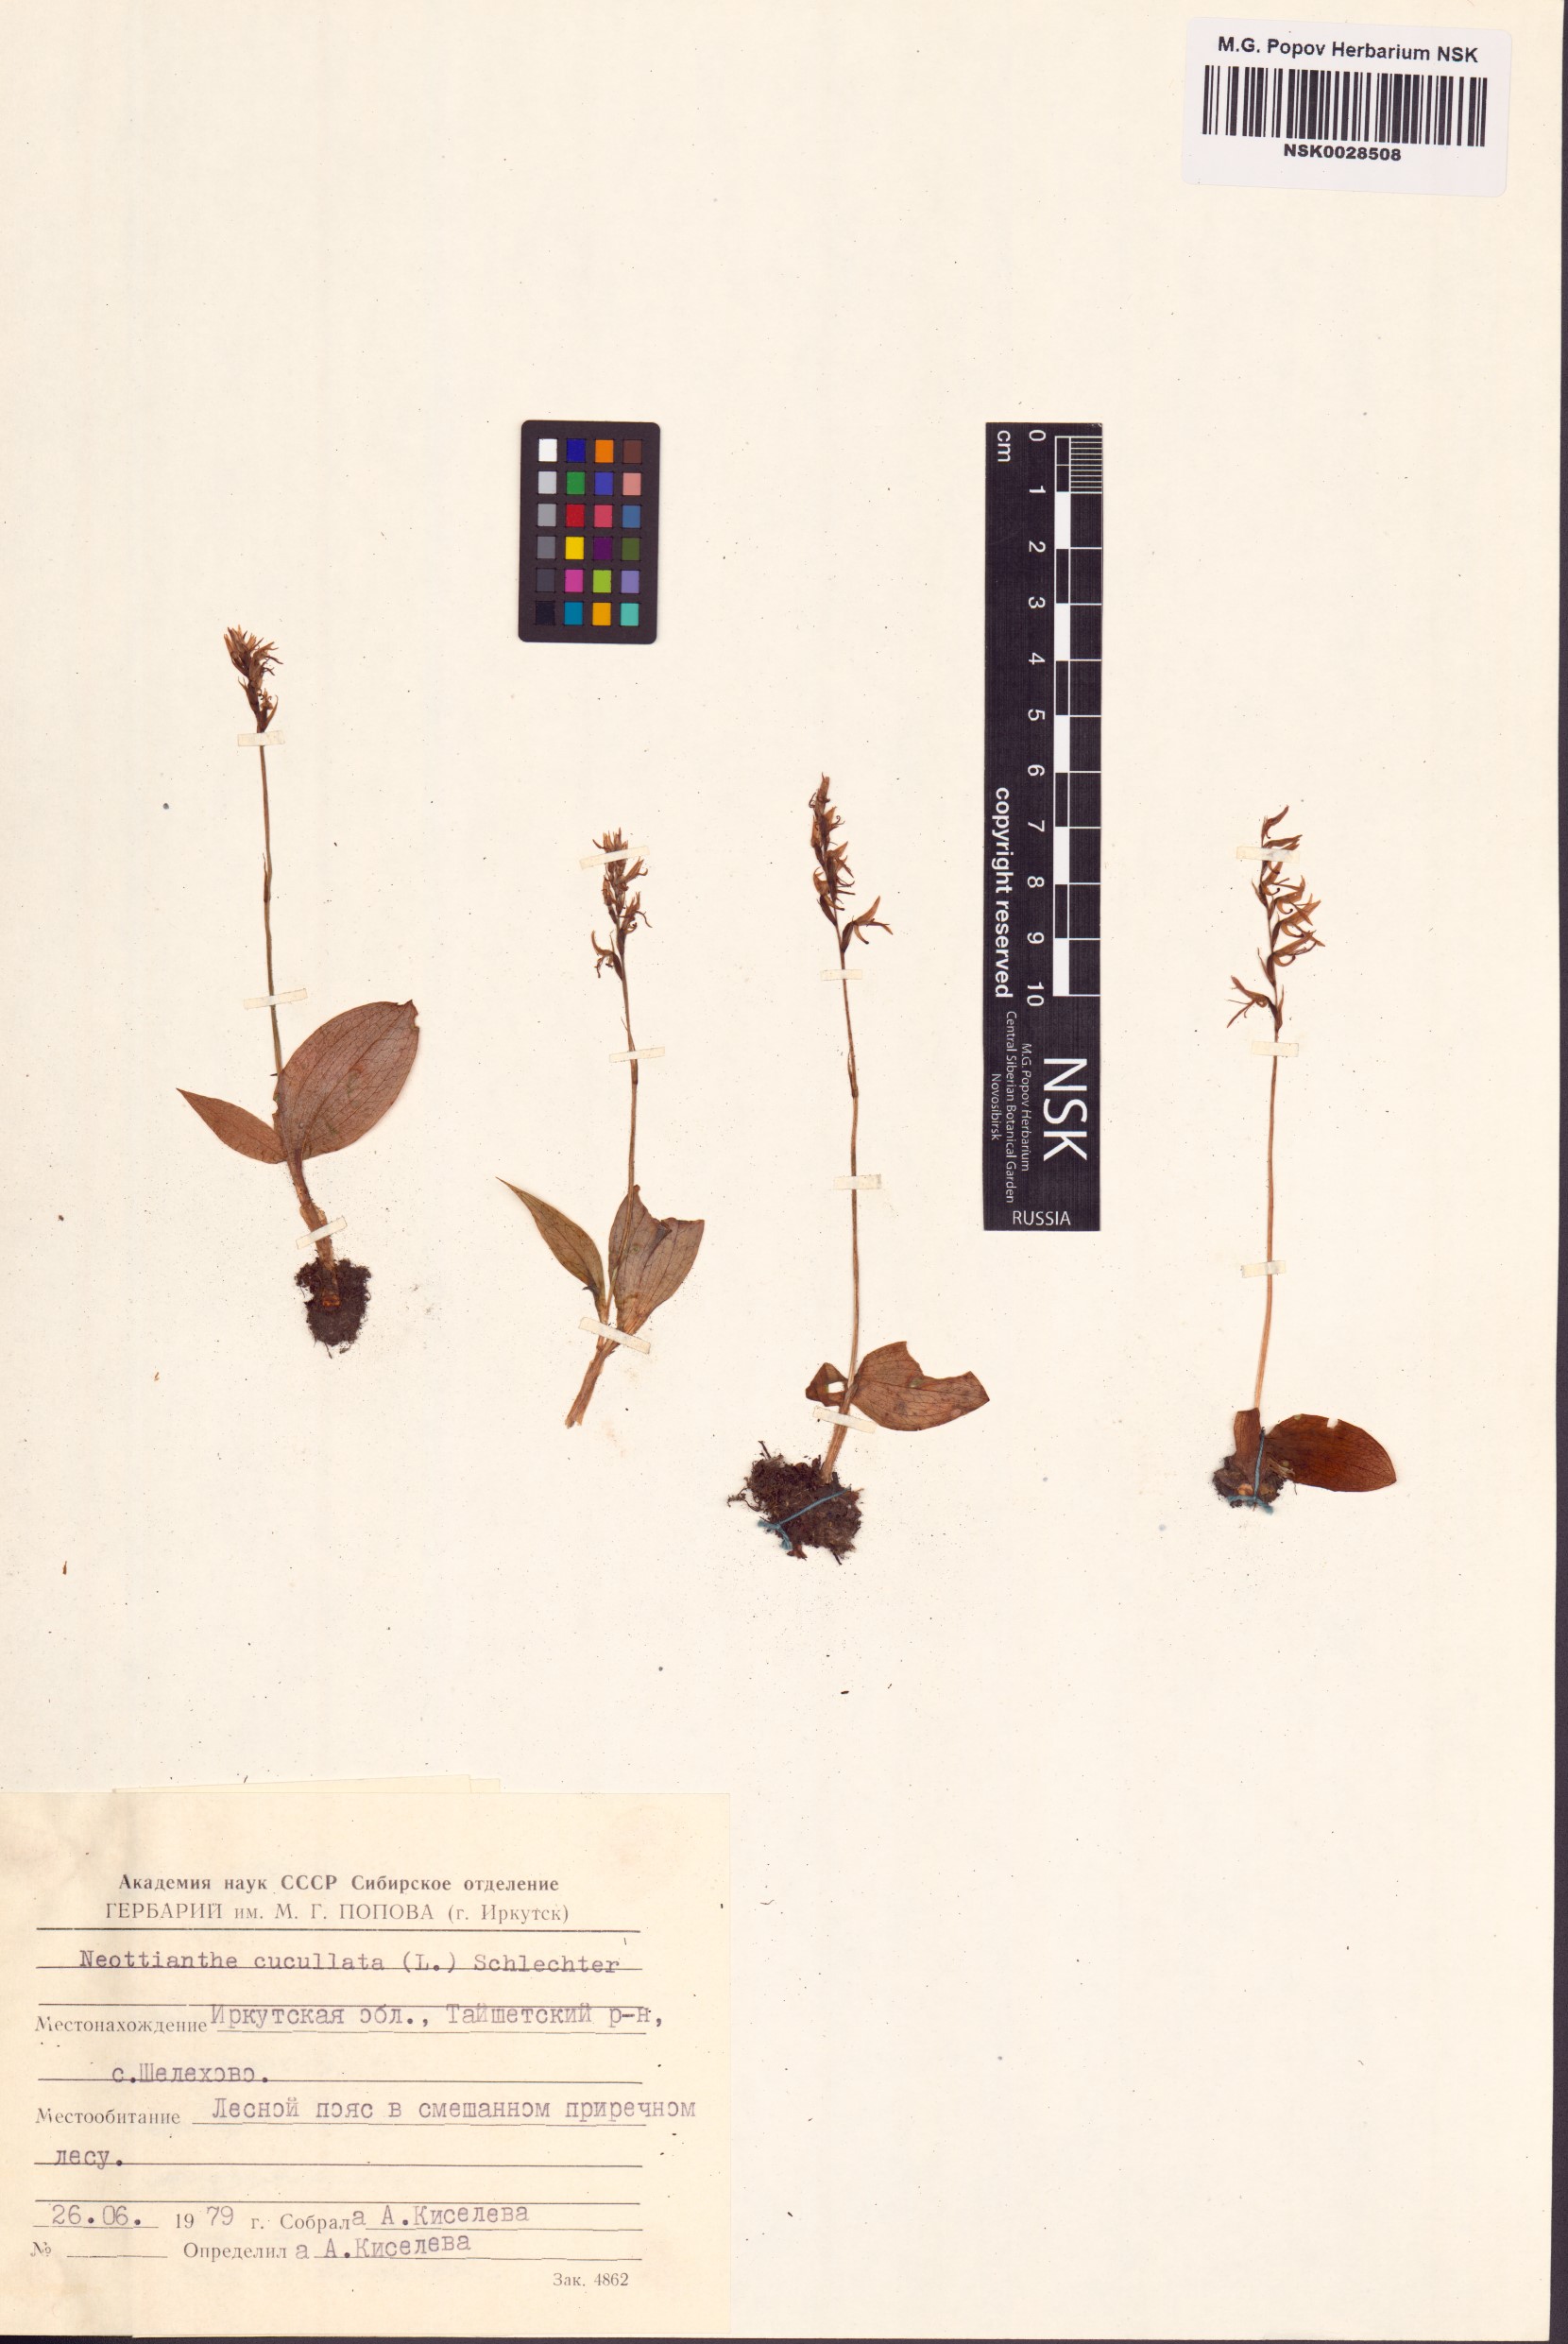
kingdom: Plantae
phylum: Tracheophyta
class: Liliopsida
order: Asparagales
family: Orchidaceae
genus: Hemipilia
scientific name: Hemipilia cucullata
